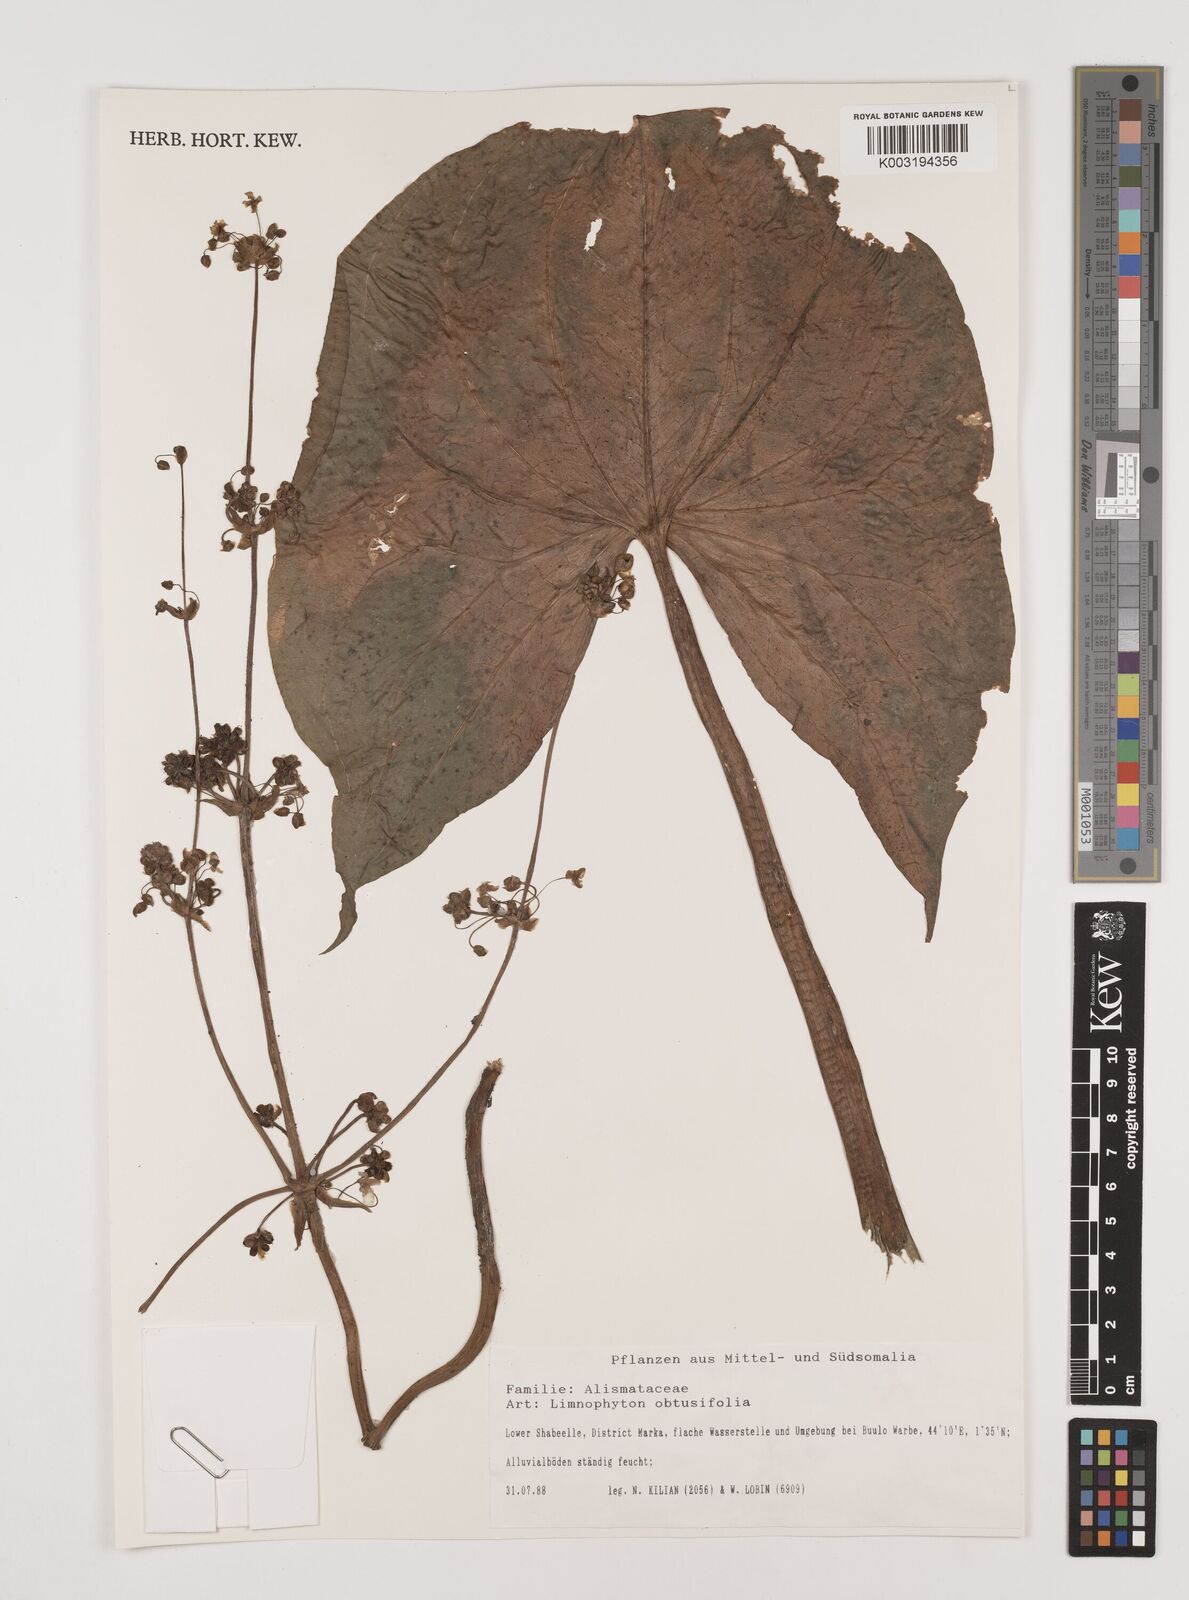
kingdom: Plantae
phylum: Tracheophyta
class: Liliopsida
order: Alismatales
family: Alismataceae
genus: Limnophyton
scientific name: Limnophyton obtusifolium
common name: Arrow head
